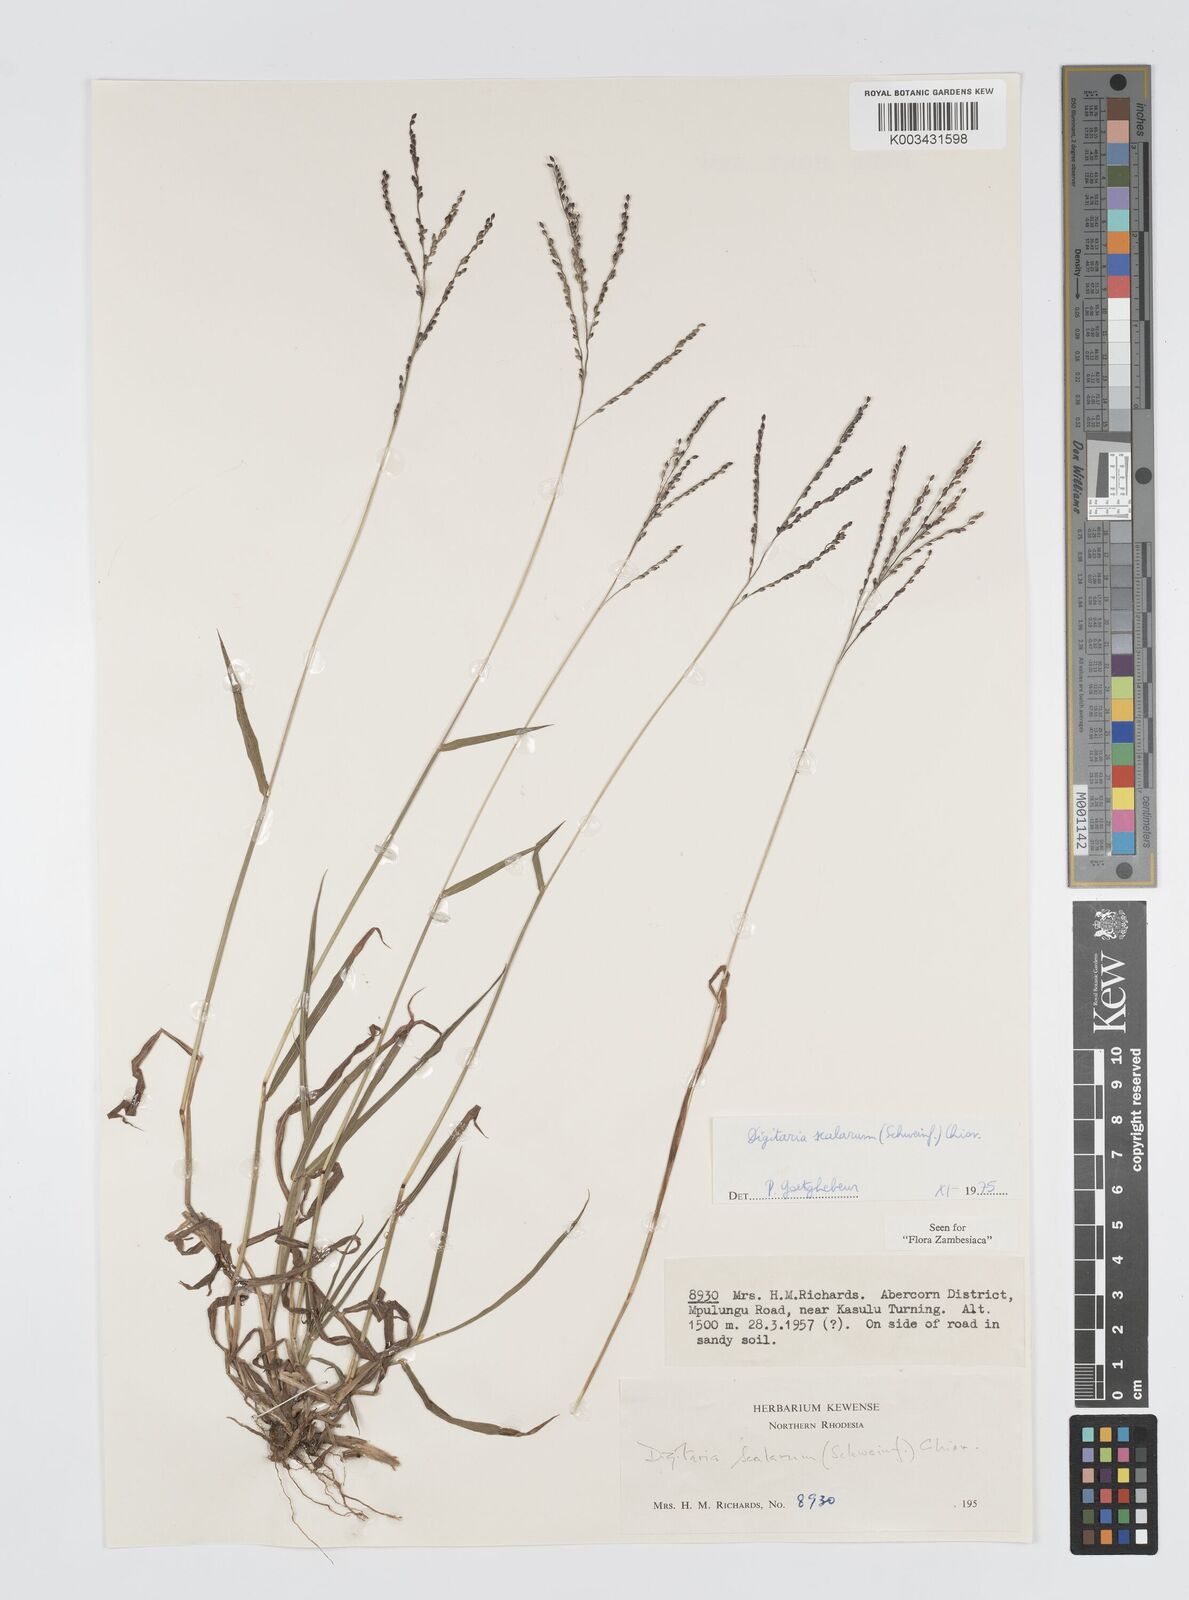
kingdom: Plantae
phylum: Tracheophyta
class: Liliopsida
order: Poales
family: Poaceae
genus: Digitaria
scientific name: Digitaria abyssinica
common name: African couchgrass
